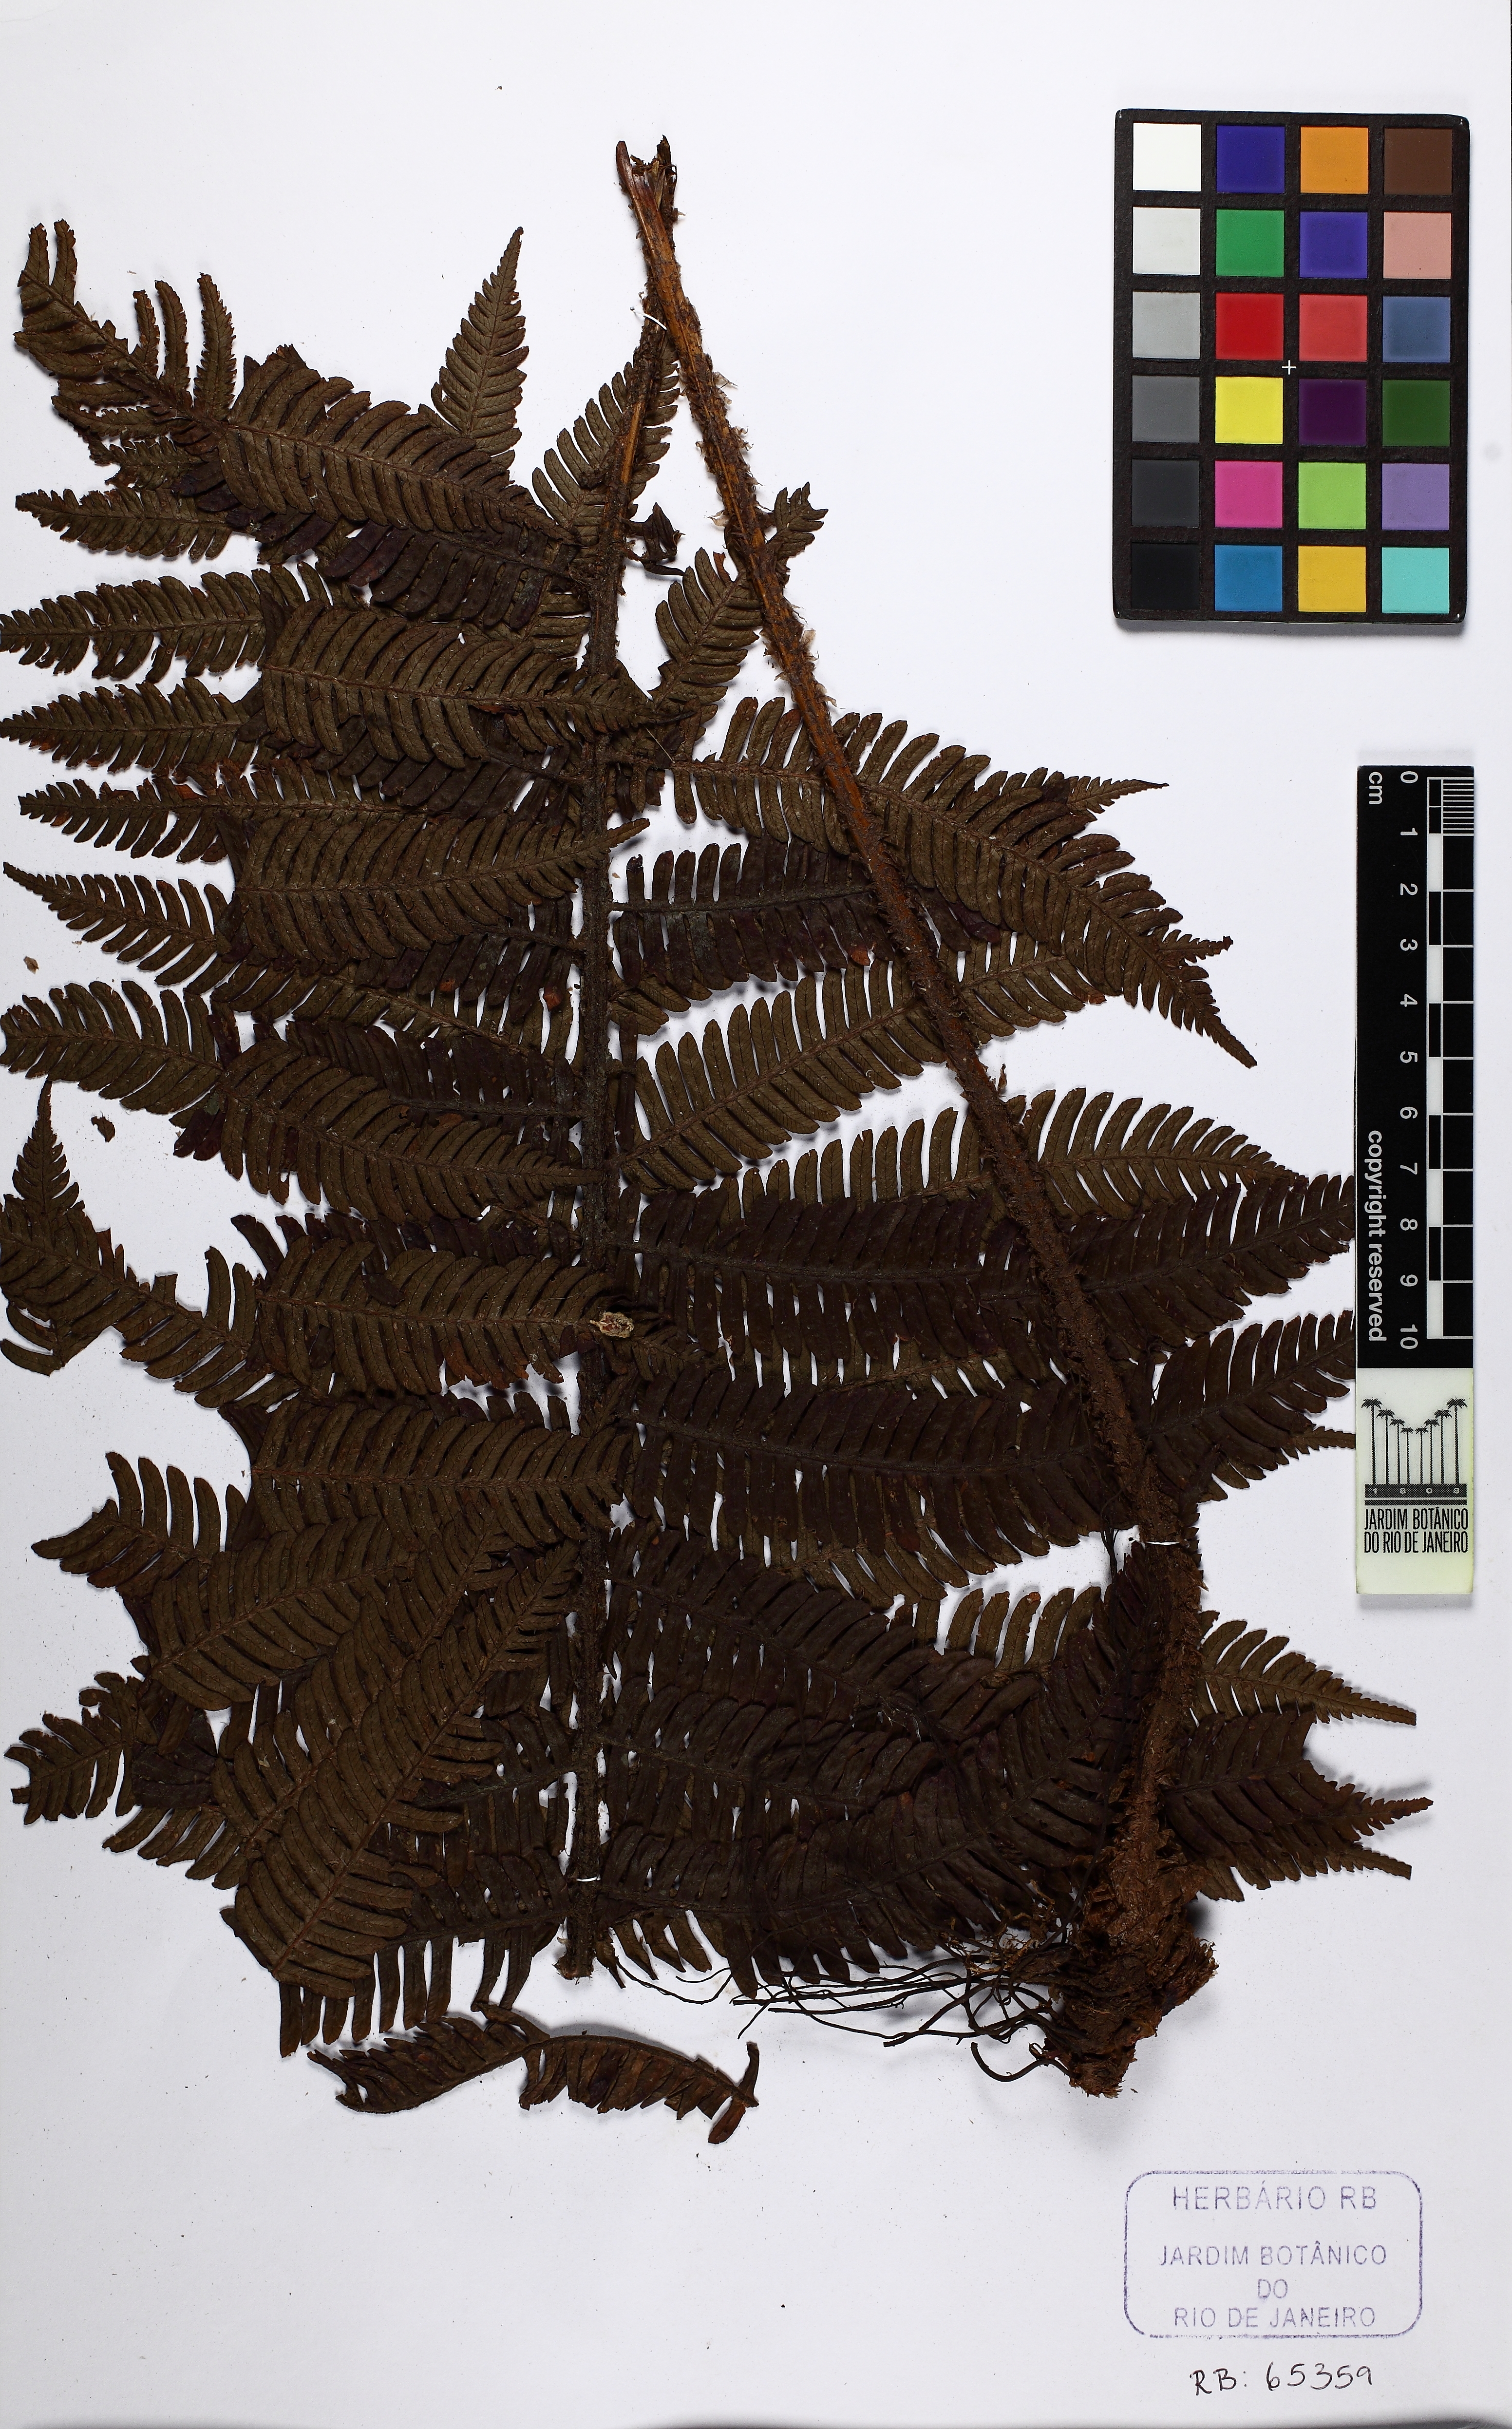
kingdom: Plantae
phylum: Tracheophyta
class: Polypodiopsida
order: Polypodiales
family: Dryopteridaceae
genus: Ctenitis
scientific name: Ctenitis fenestralis
